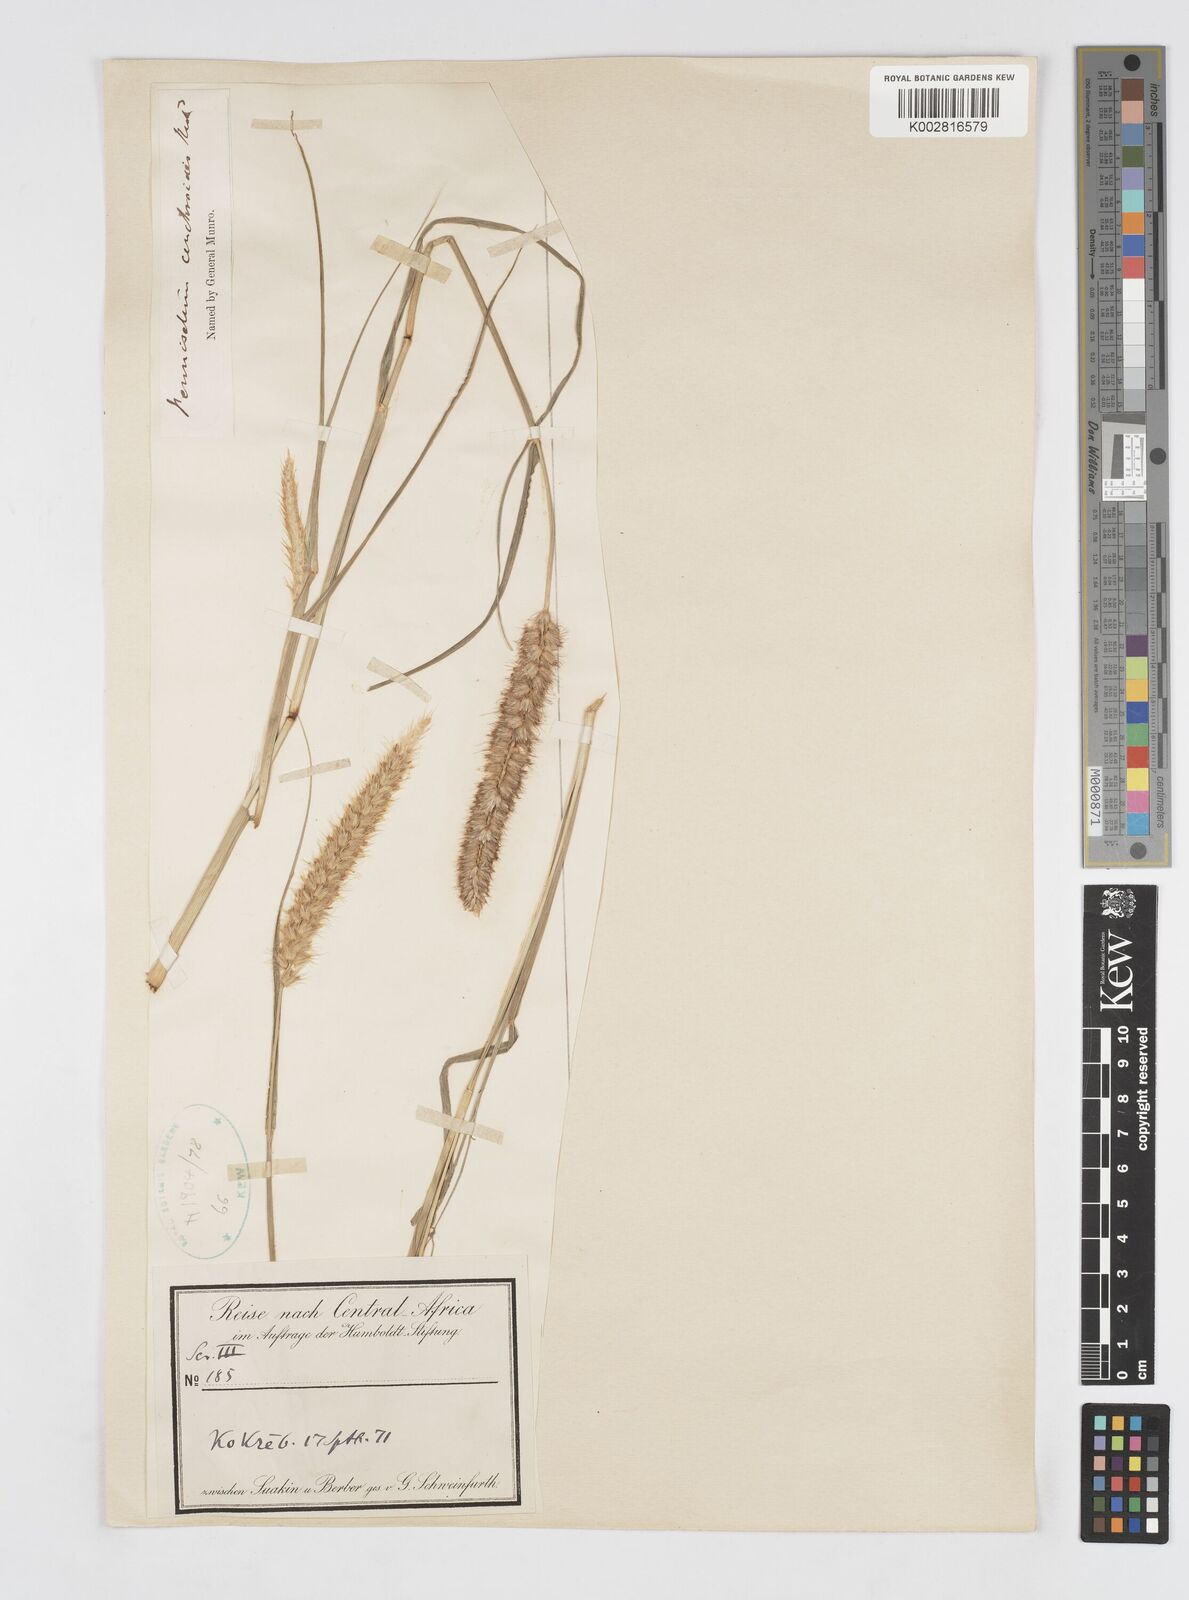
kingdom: Plantae
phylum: Tracheophyta
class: Liliopsida
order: Poales
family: Poaceae
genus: Cenchrus
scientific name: Cenchrus ciliaris
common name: Buffelgrass
